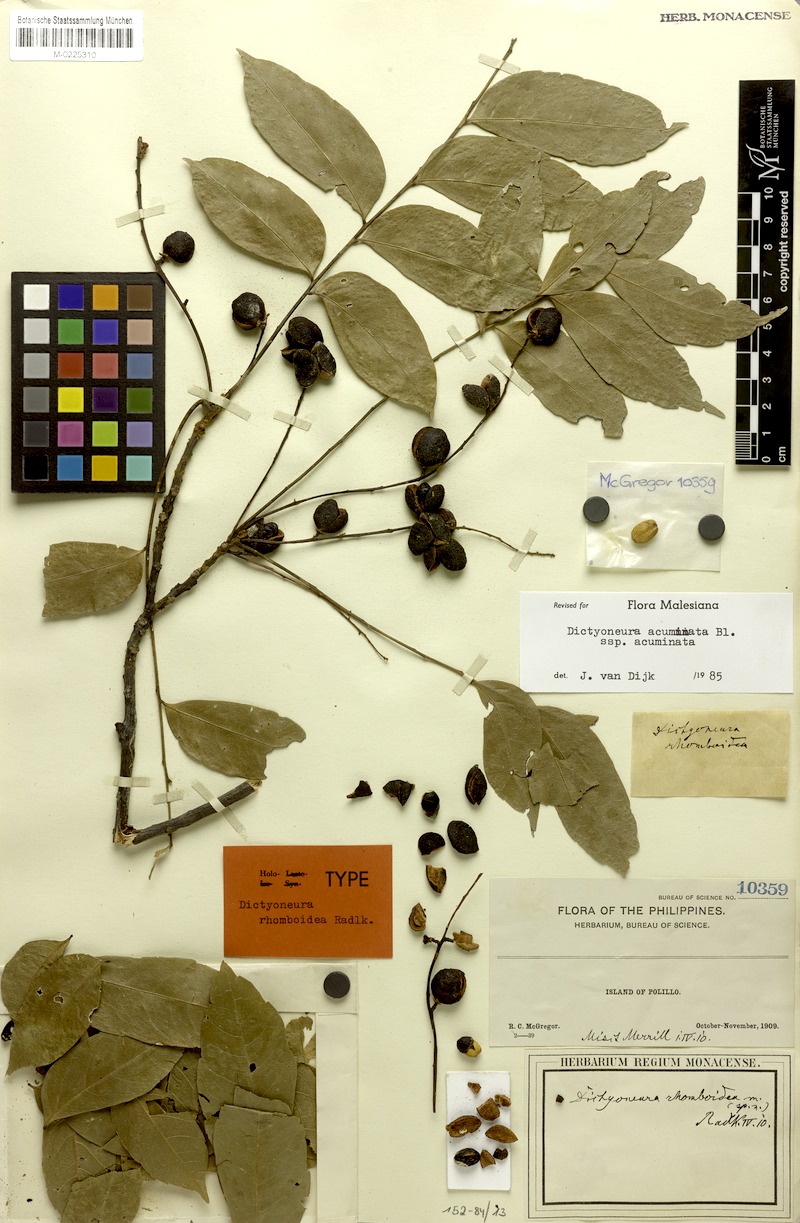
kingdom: Plantae
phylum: Tracheophyta
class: Magnoliopsida
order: Sapindales
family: Sapindaceae
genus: Dictyoneura
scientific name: Dictyoneura acuminata
